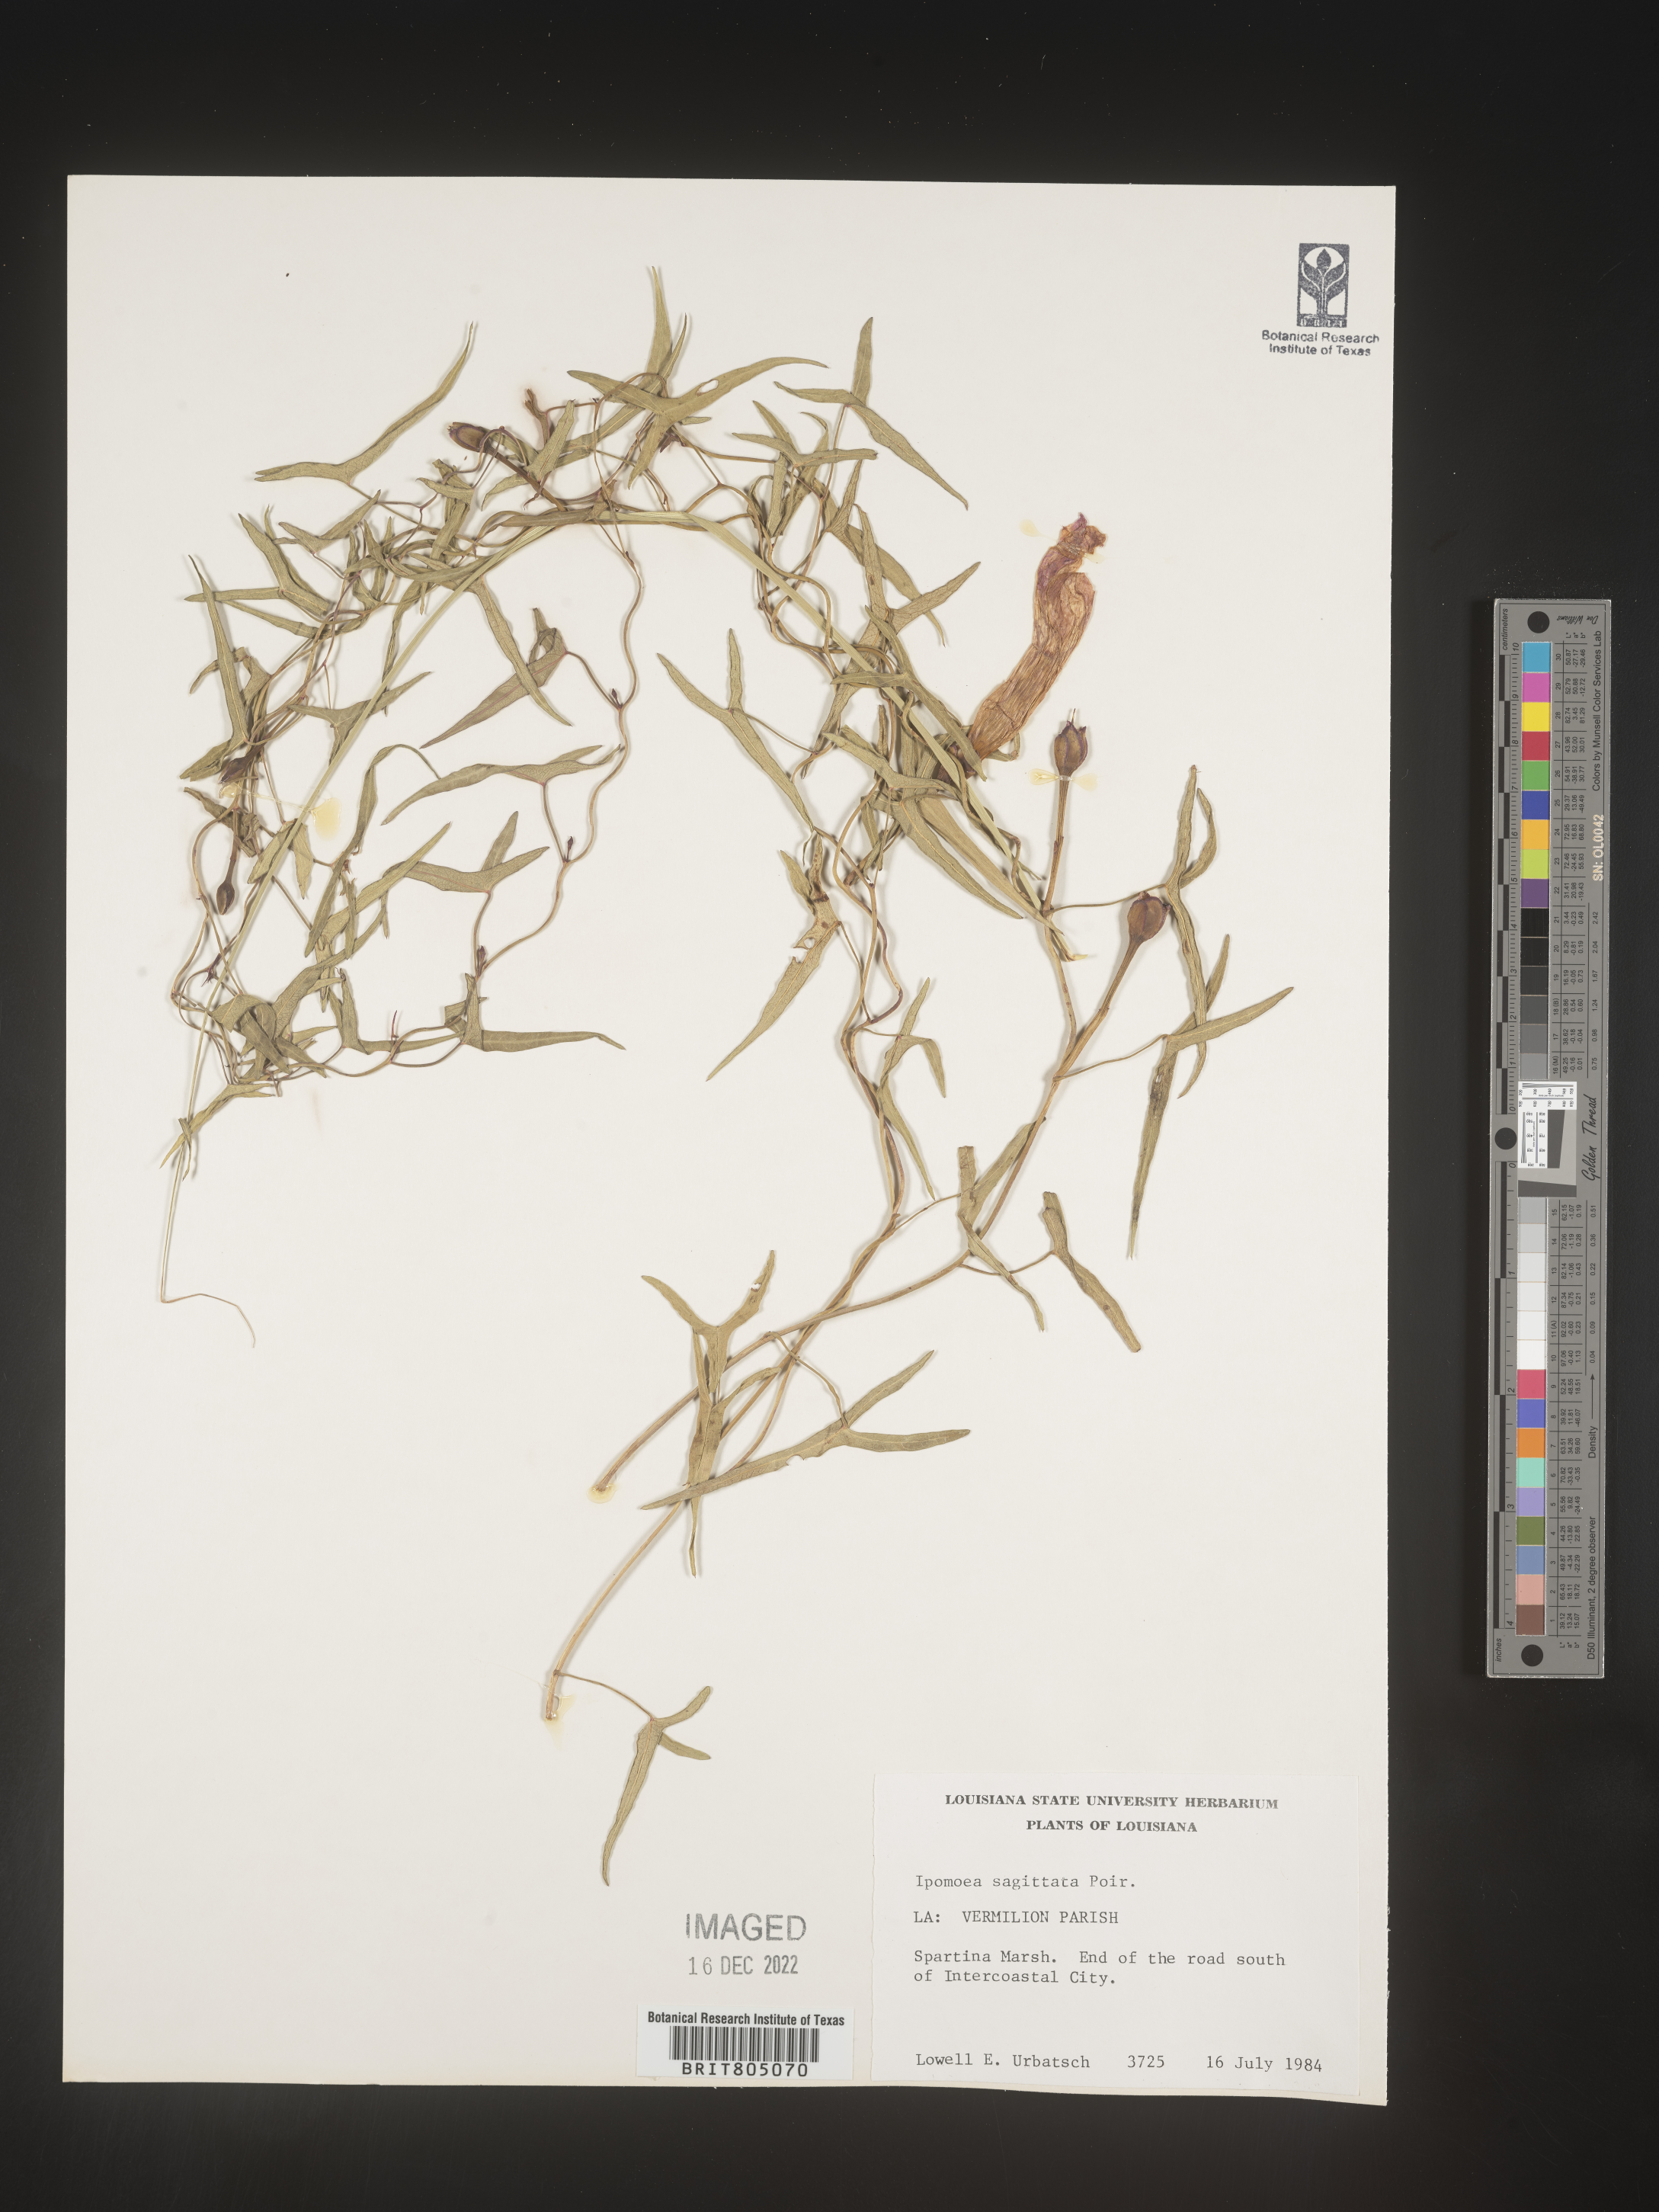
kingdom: Plantae
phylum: Tracheophyta
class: Magnoliopsida
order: Solanales
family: Convolvulaceae
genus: Ipomoea
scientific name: Ipomoea sinensis
